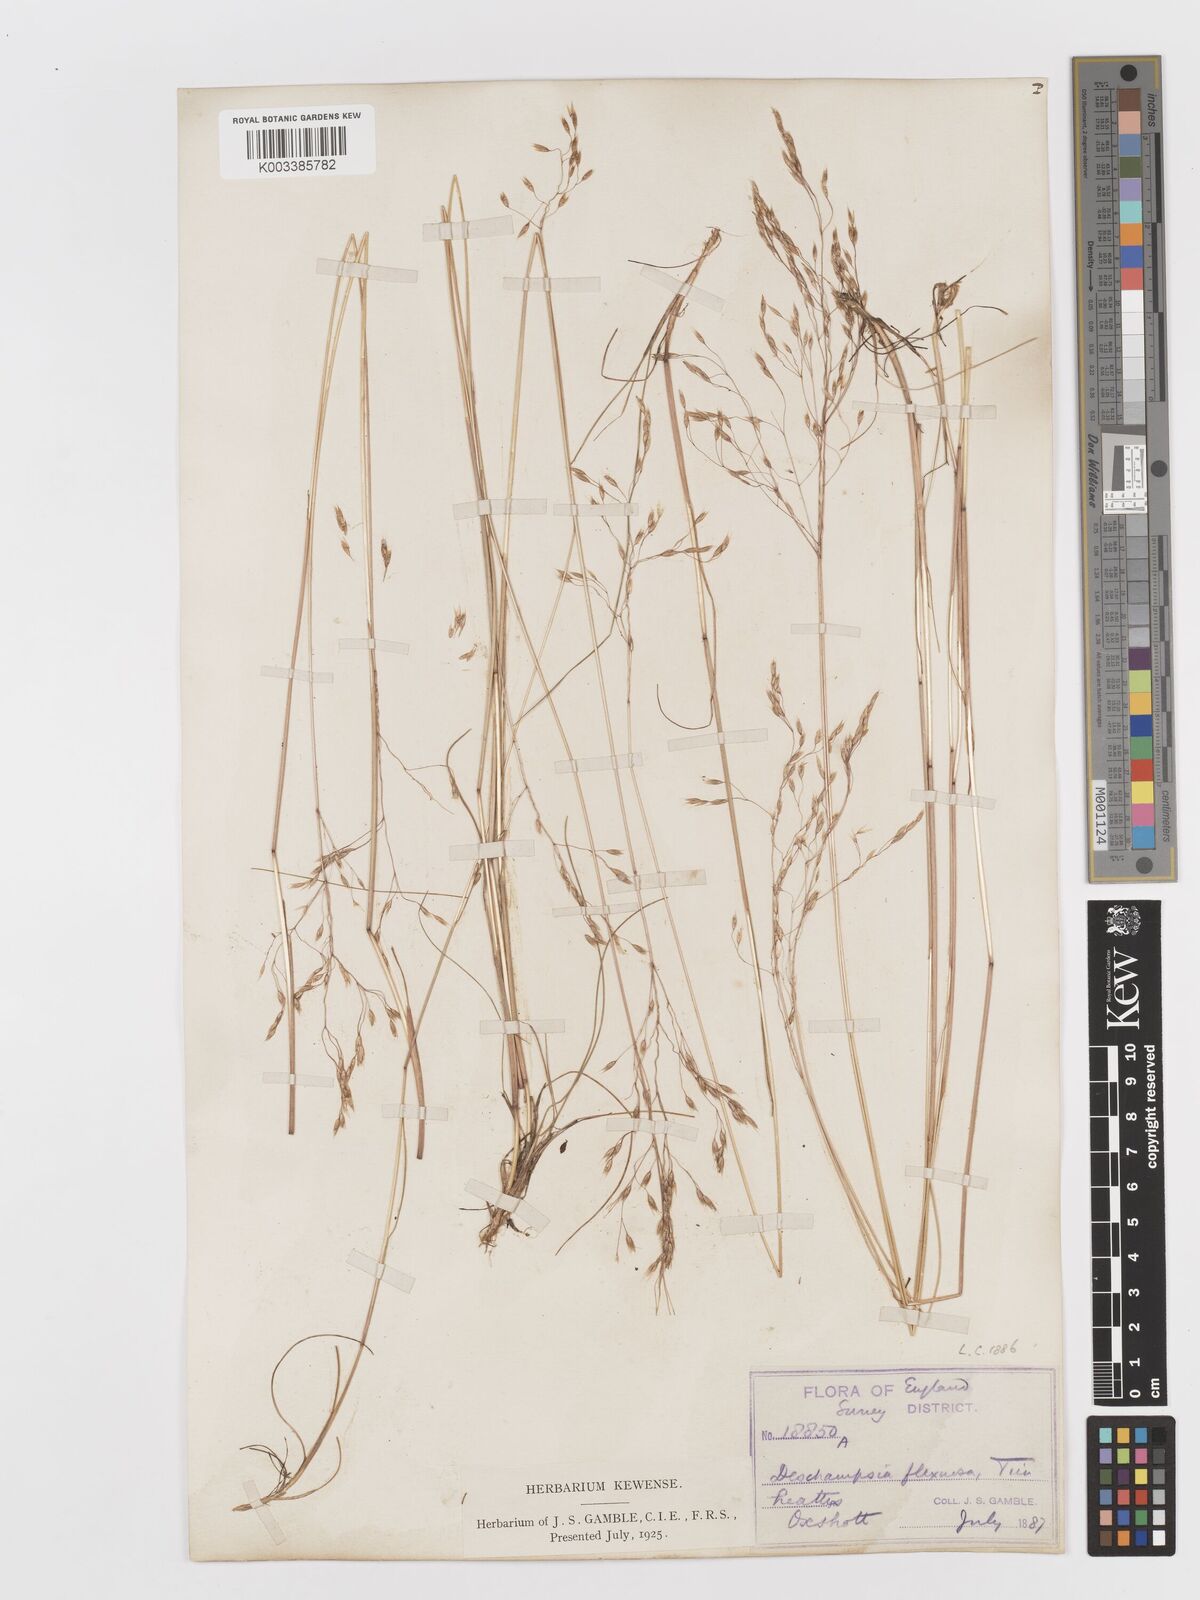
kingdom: Plantae
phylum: Tracheophyta
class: Liliopsida
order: Poales
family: Poaceae
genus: Avenella
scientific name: Avenella flexuosa
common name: Wavy hairgrass
